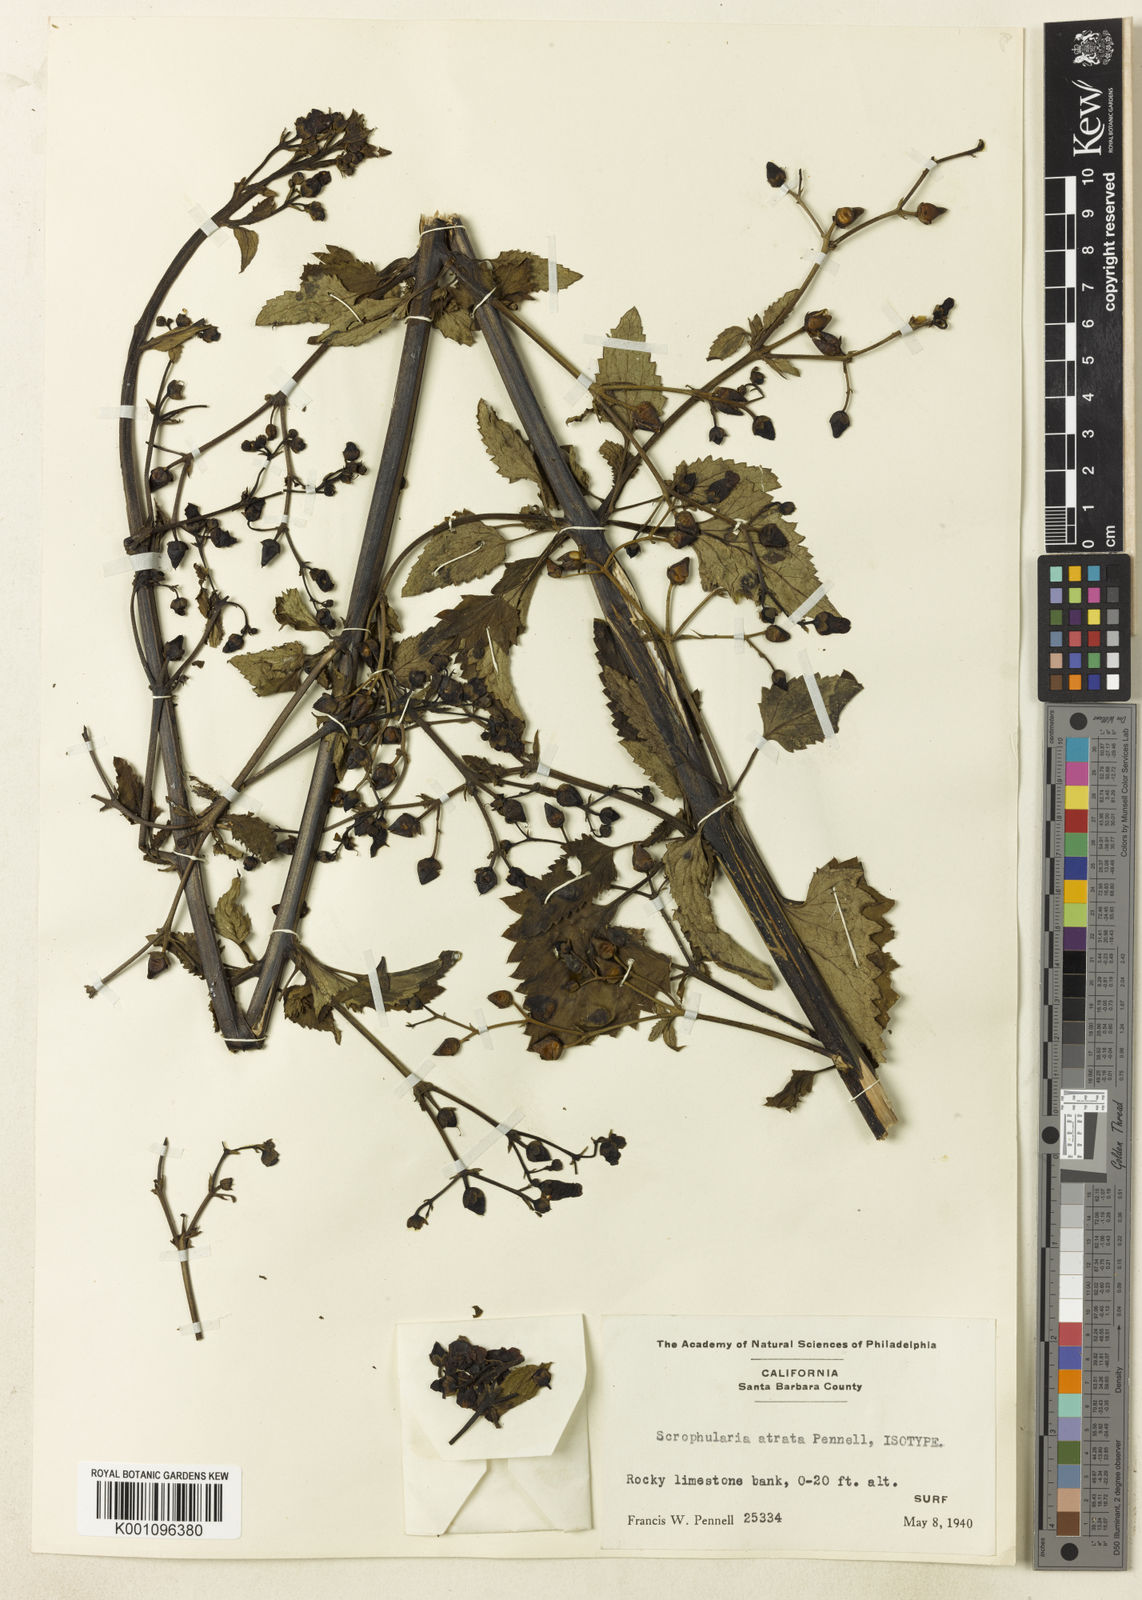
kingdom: Plantae
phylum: Tracheophyta
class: Magnoliopsida
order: Lamiales
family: Scrophulariaceae
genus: Scrophularia
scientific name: Scrophularia atrata
